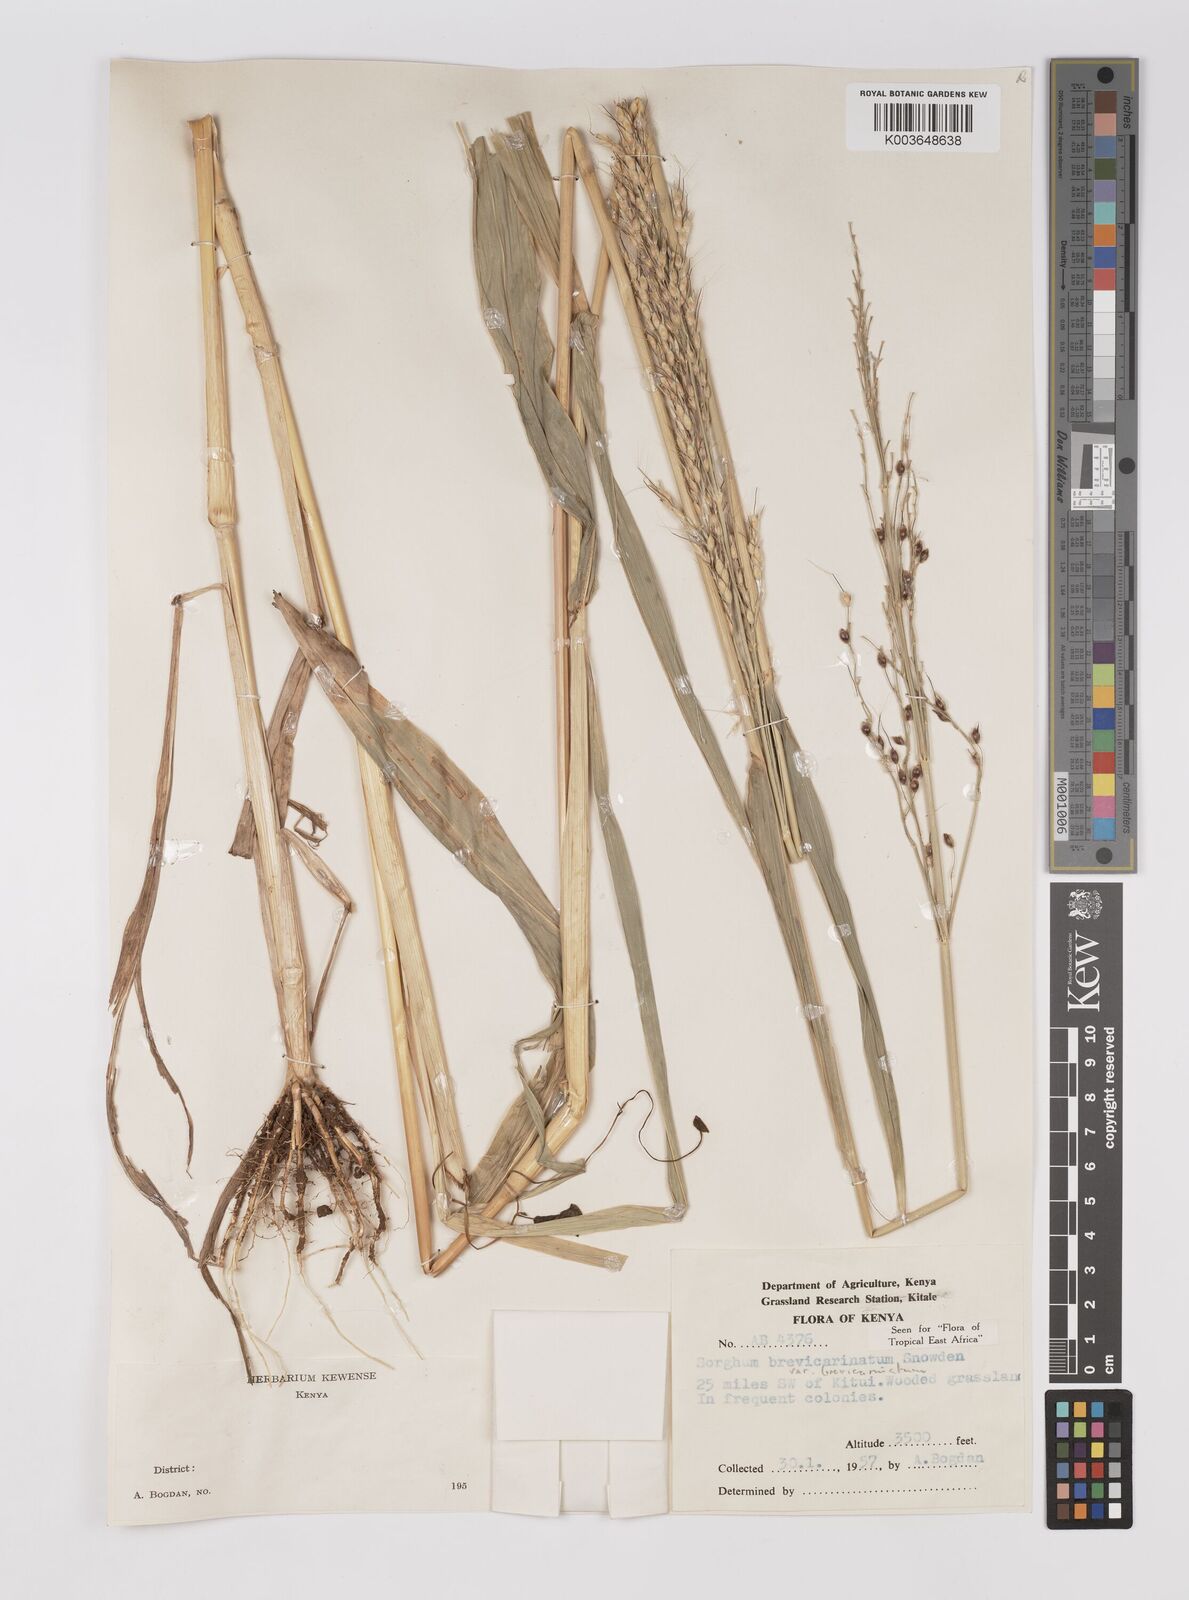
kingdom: Plantae
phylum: Tracheophyta
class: Liliopsida
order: Poales
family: Poaceae
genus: Sorghum
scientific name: Sorghum arundinaceum
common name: Sorghum
